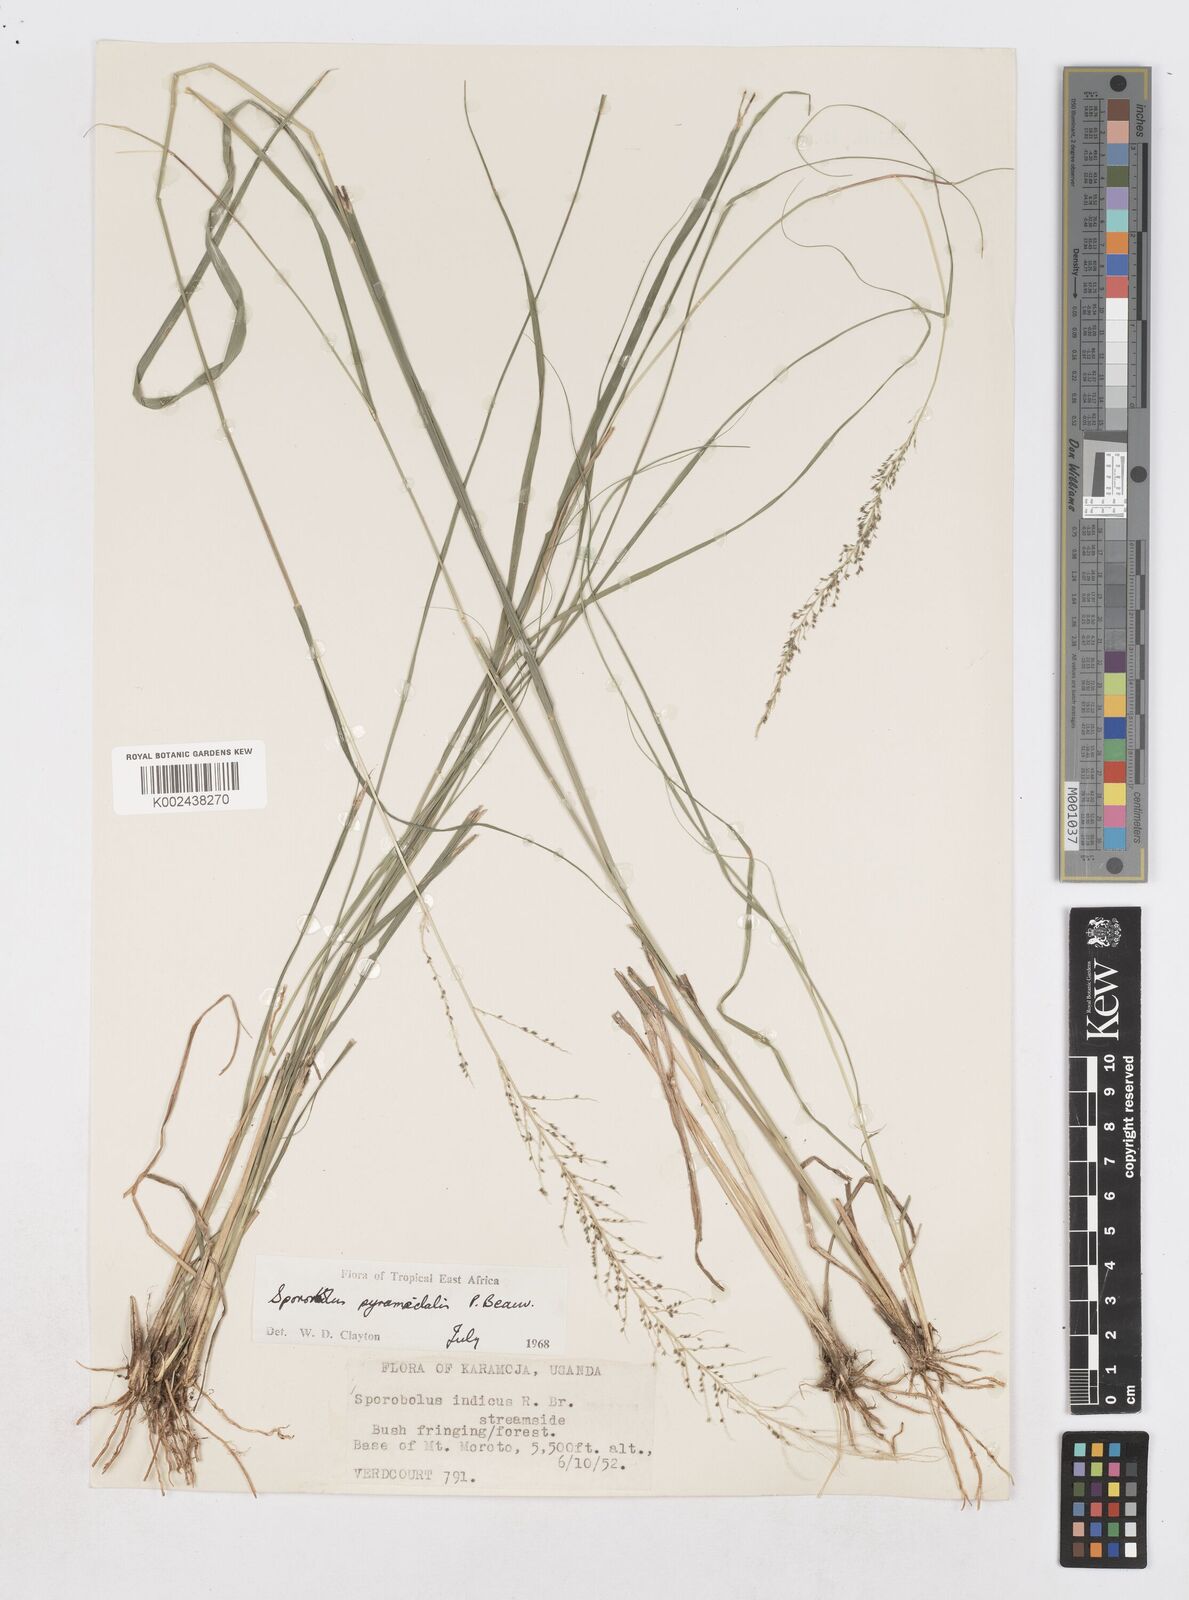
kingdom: Plantae
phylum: Tracheophyta
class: Liliopsida
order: Poales
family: Poaceae
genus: Sporobolus
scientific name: Sporobolus pyramidalis
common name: West indian dropseed
